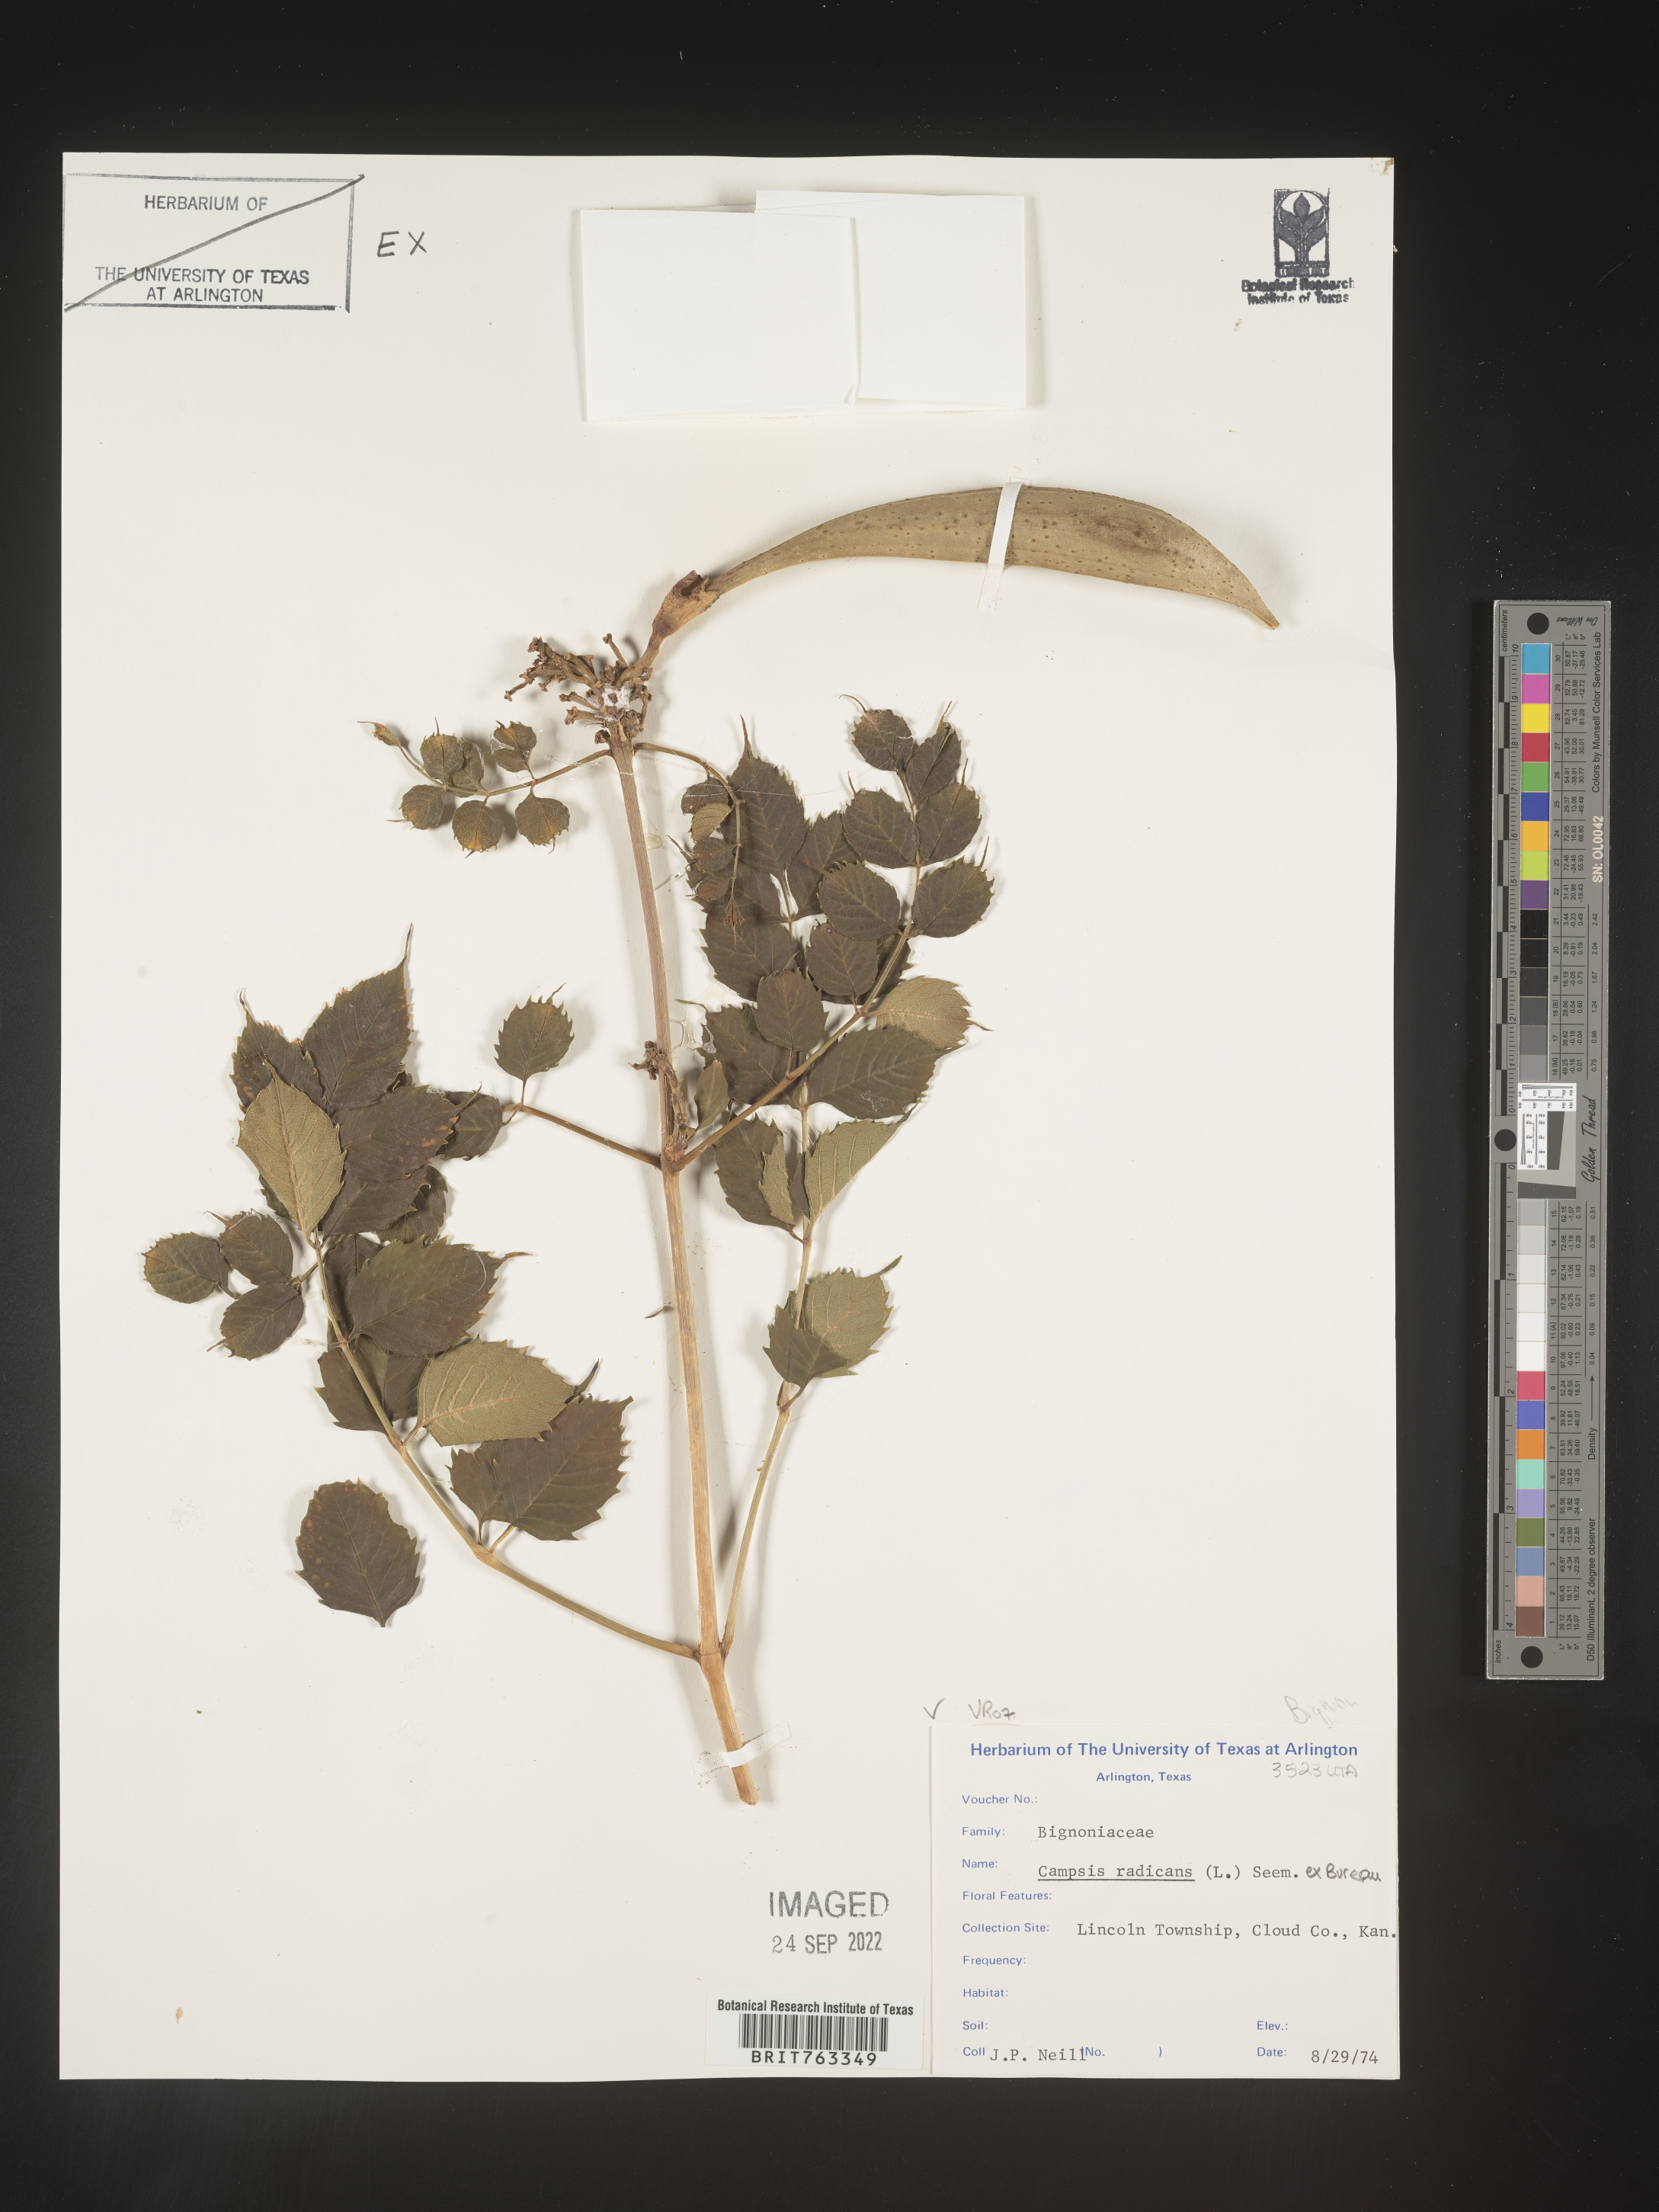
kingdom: Plantae
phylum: Tracheophyta
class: Magnoliopsida
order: Lamiales
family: Bignoniaceae
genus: Campsis
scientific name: Campsis radicans
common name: Trumpet-creeper
